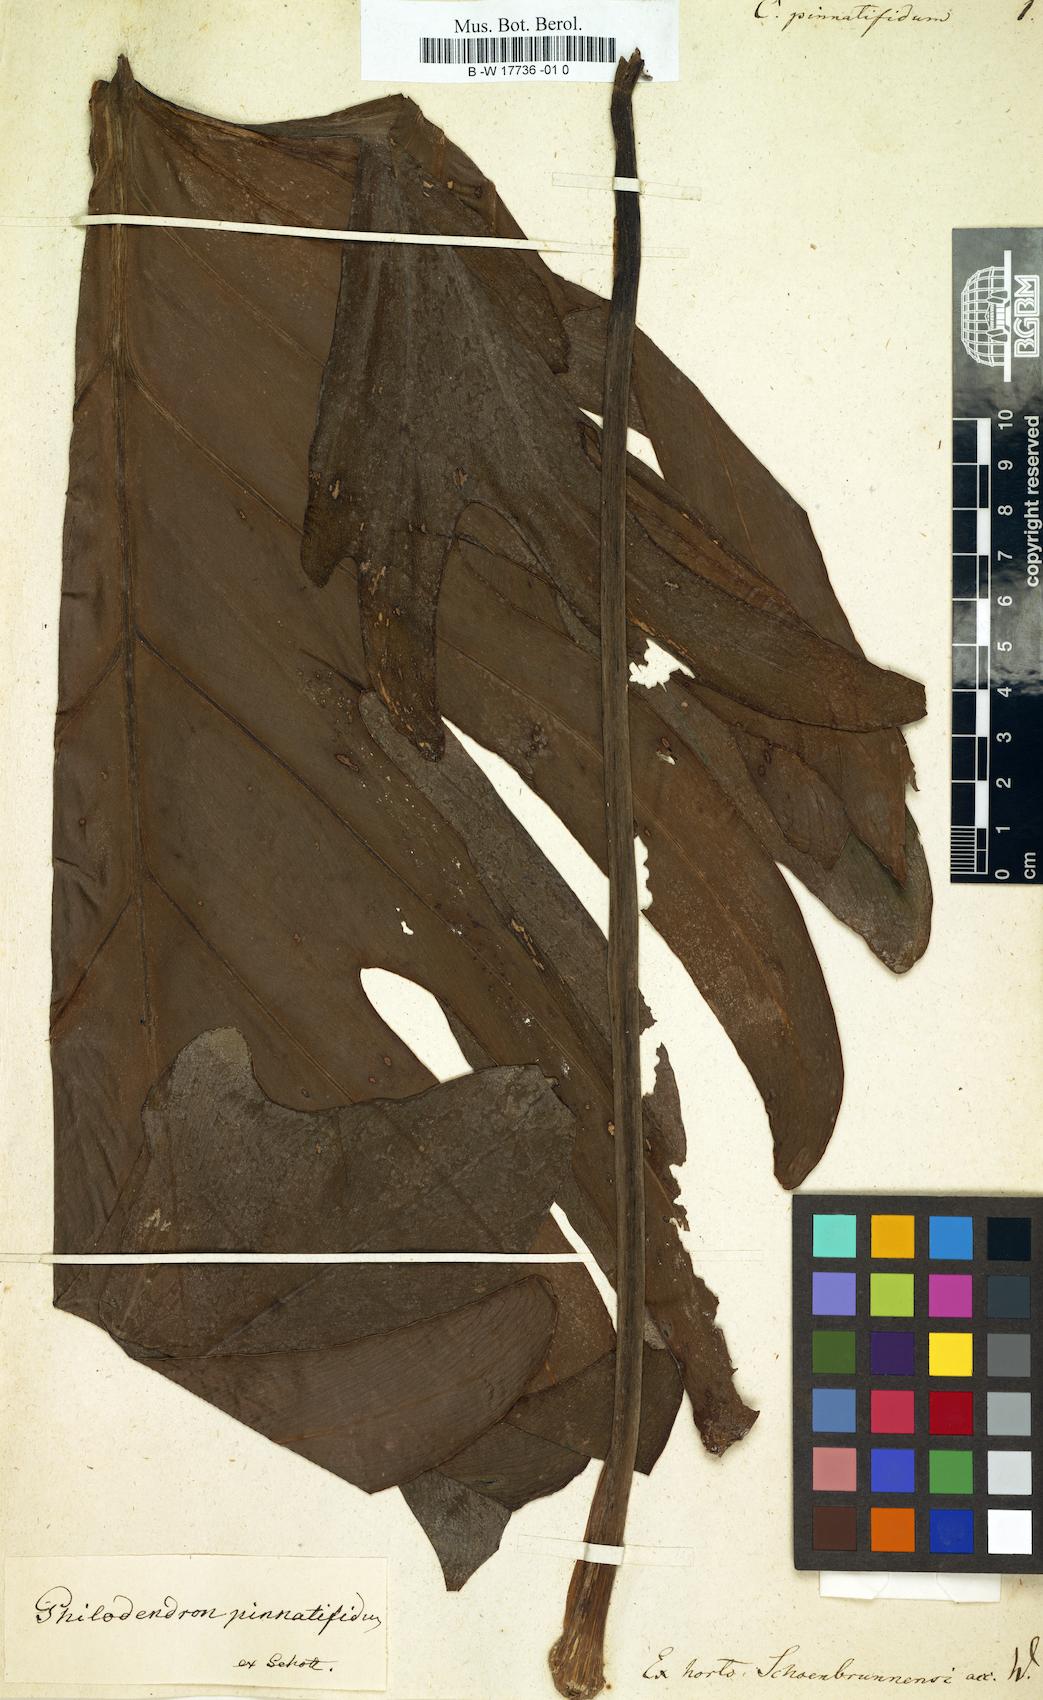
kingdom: Plantae
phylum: Tracheophyta
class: Liliopsida
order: Alismatales
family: Araceae
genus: Philodendron
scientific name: Philodendron pinnatifidum
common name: Comb-leaf philodendron
